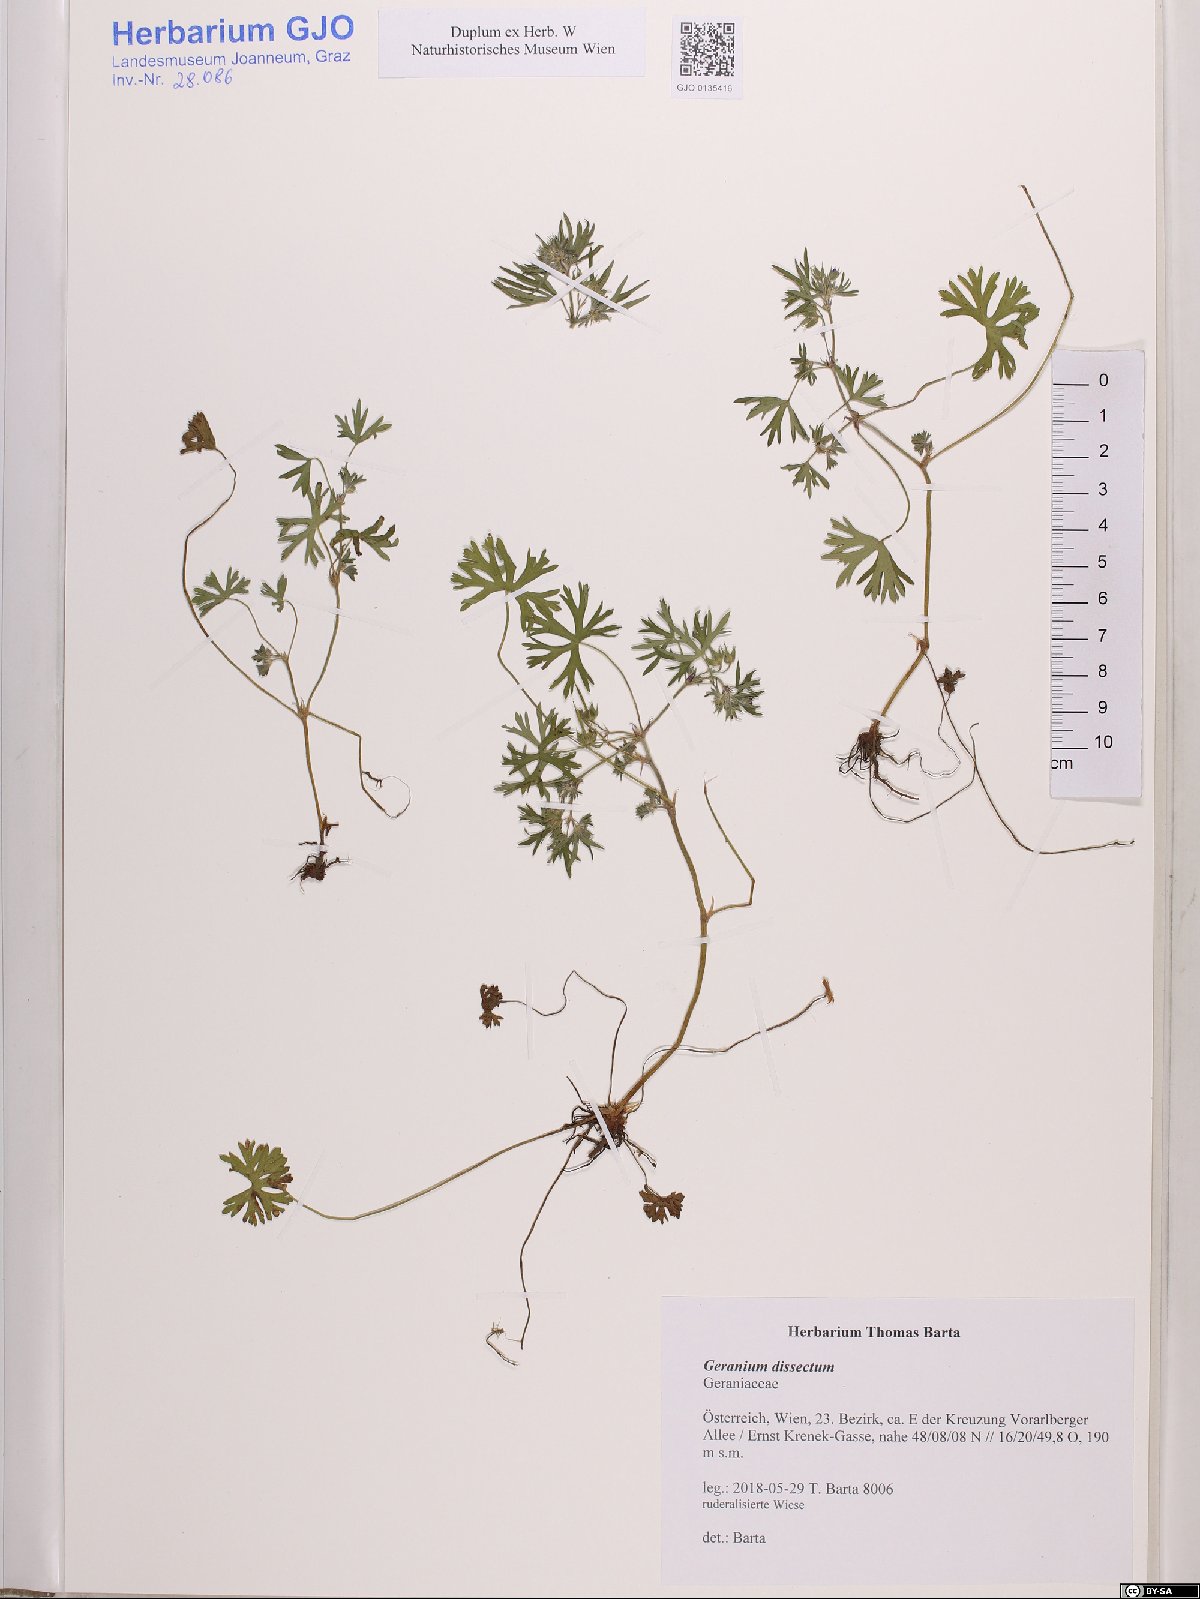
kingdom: Plantae
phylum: Tracheophyta
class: Magnoliopsida
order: Geraniales
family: Geraniaceae
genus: Geranium
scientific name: Geranium dissectum
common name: Cut-leaved crane's-bill
